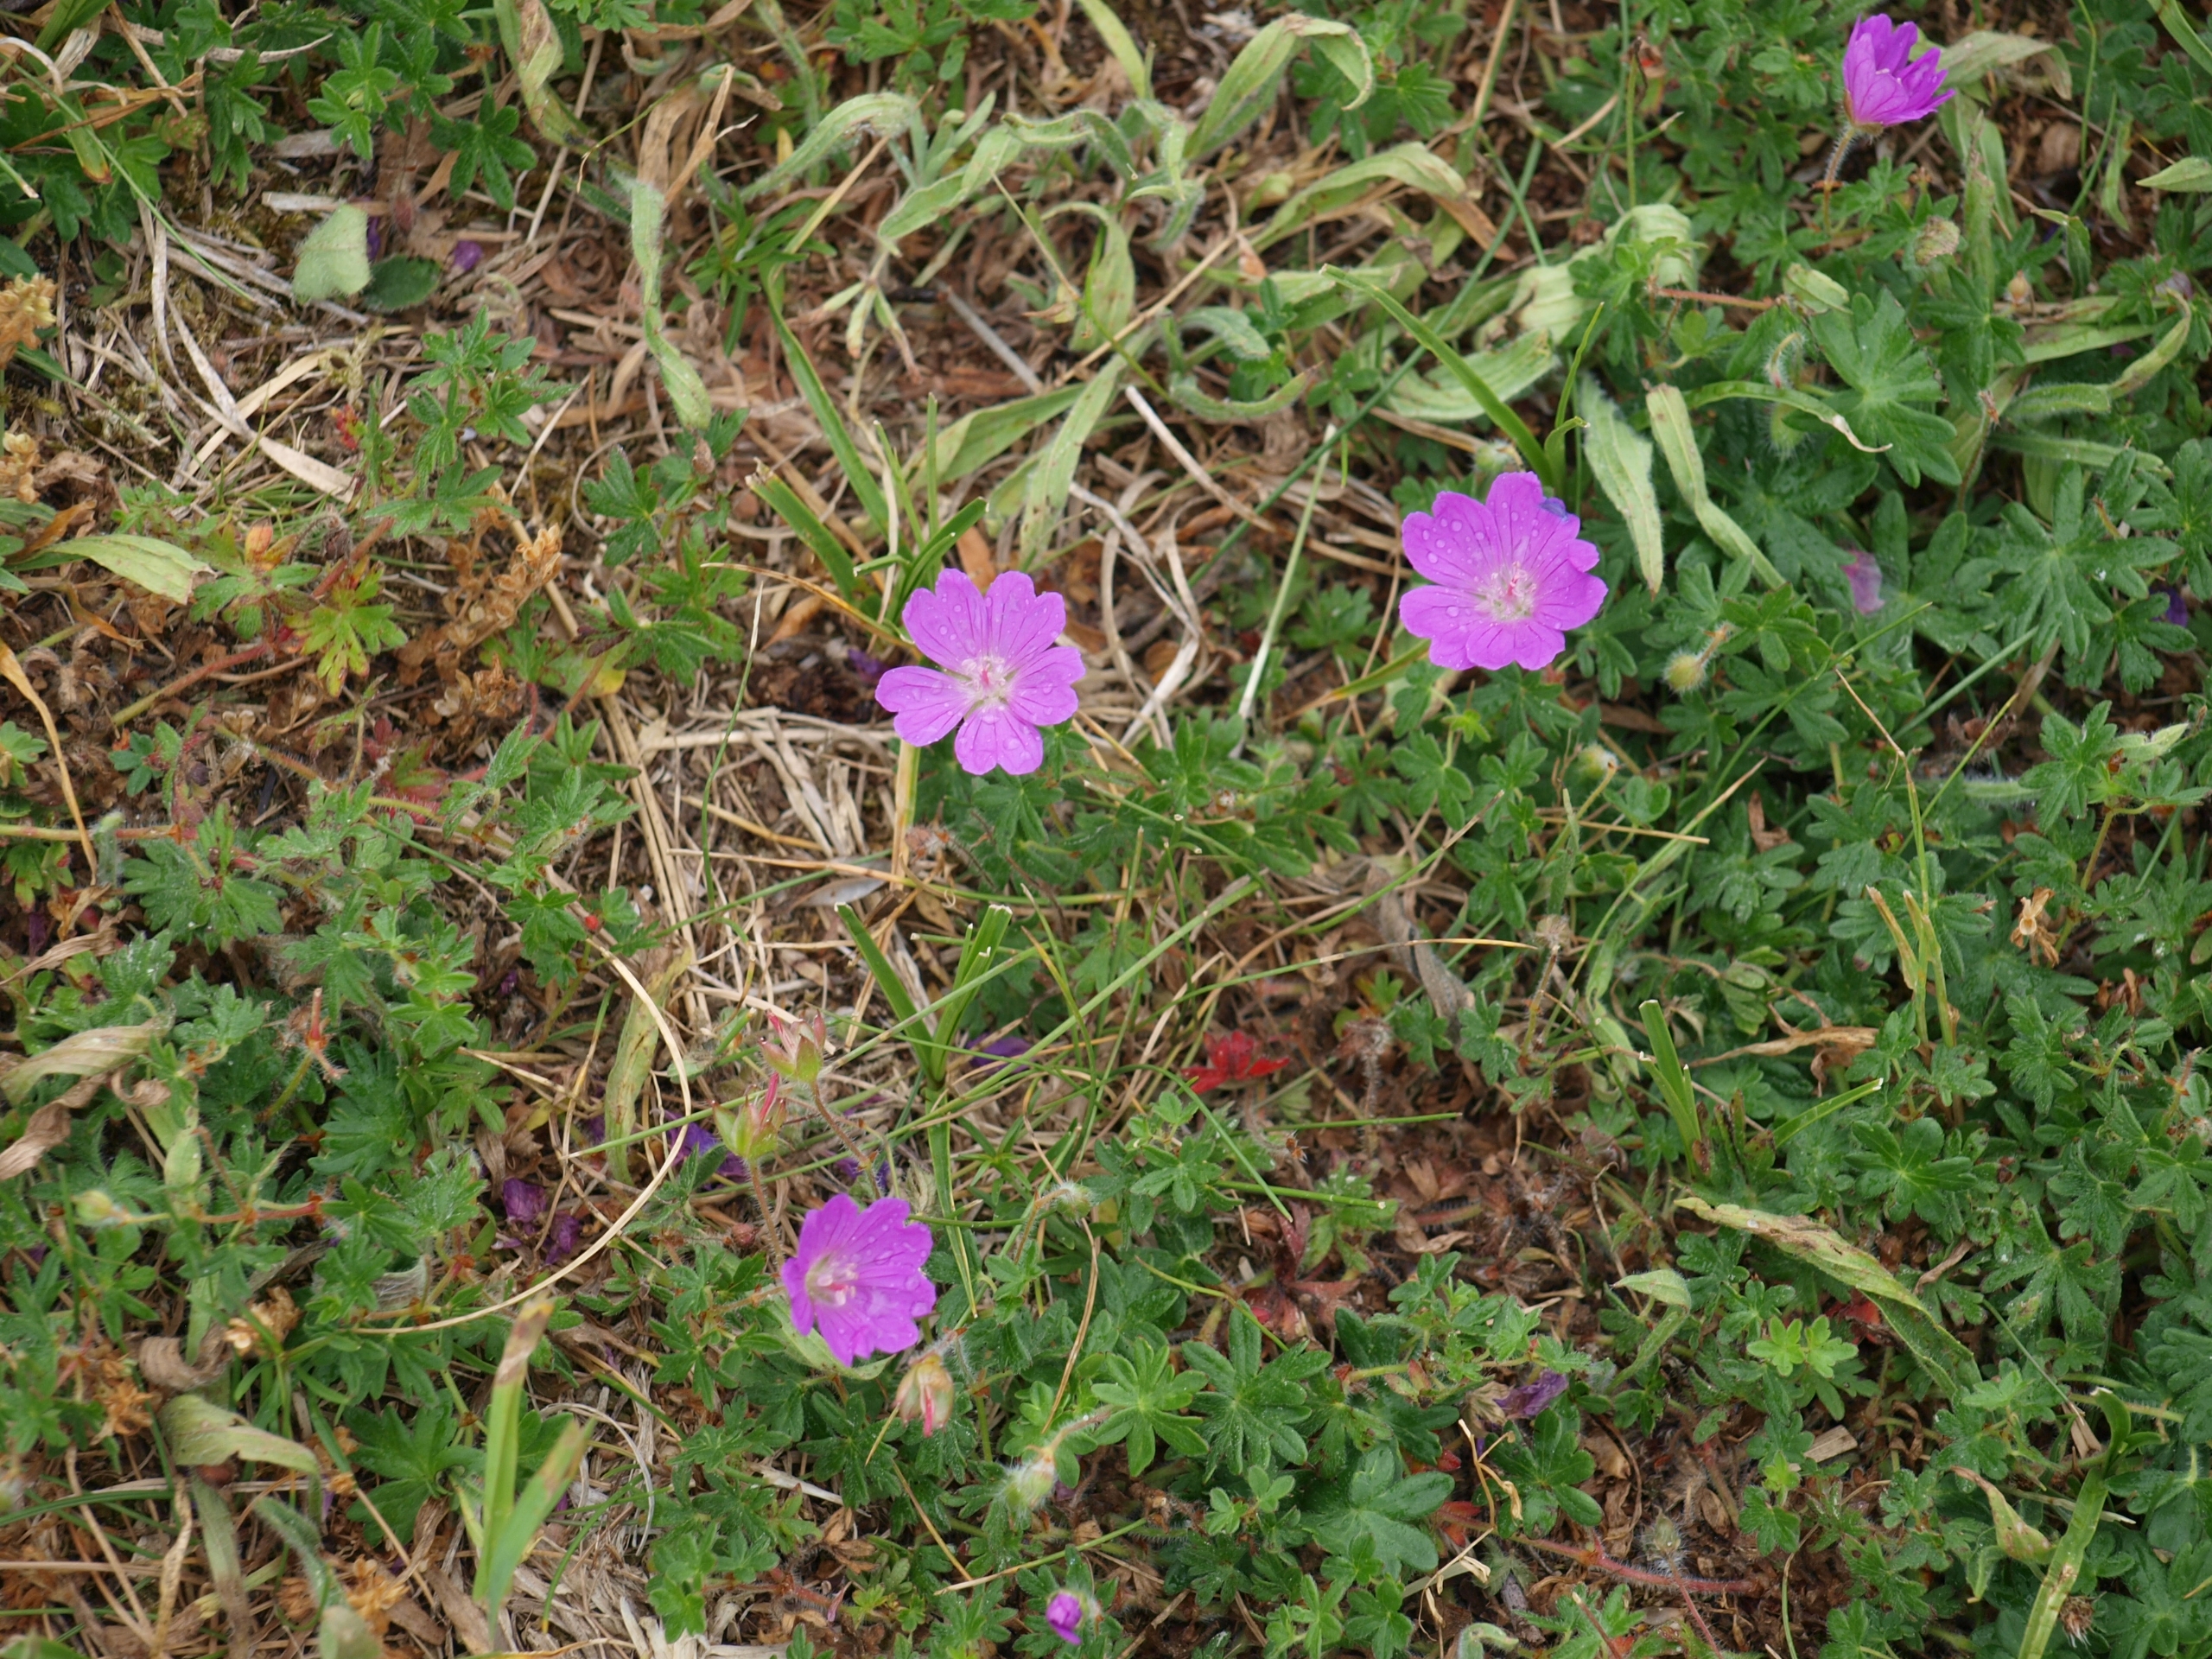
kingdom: Plantae
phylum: Tracheophyta
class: Magnoliopsida
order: Geraniales
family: Geraniaceae
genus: Geranium
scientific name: Geranium sanguineum
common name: Blodrød storkenæb
